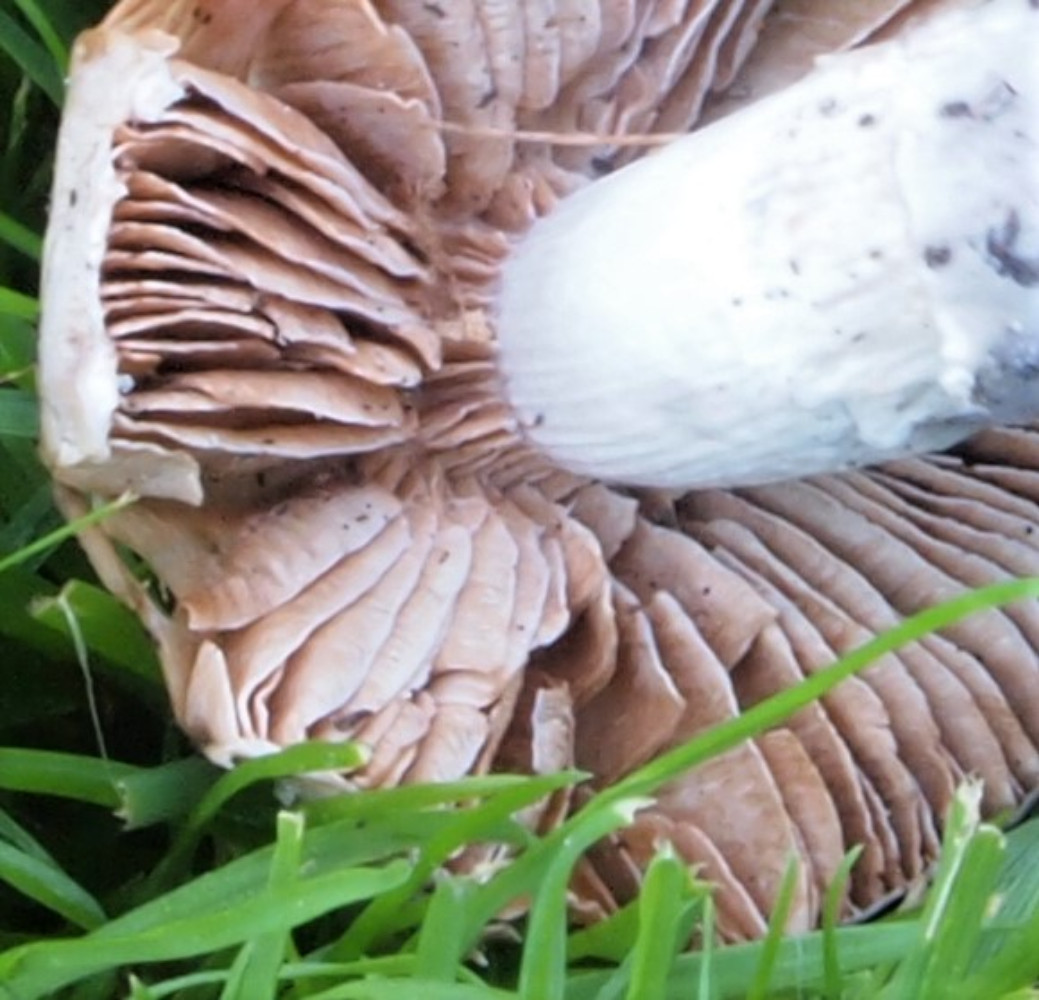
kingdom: Fungi
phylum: Basidiomycota
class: Agaricomycetes
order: Agaricales
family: Cortinariaceae
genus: Cortinarius
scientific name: Cortinarius elatior
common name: høj slørhat
